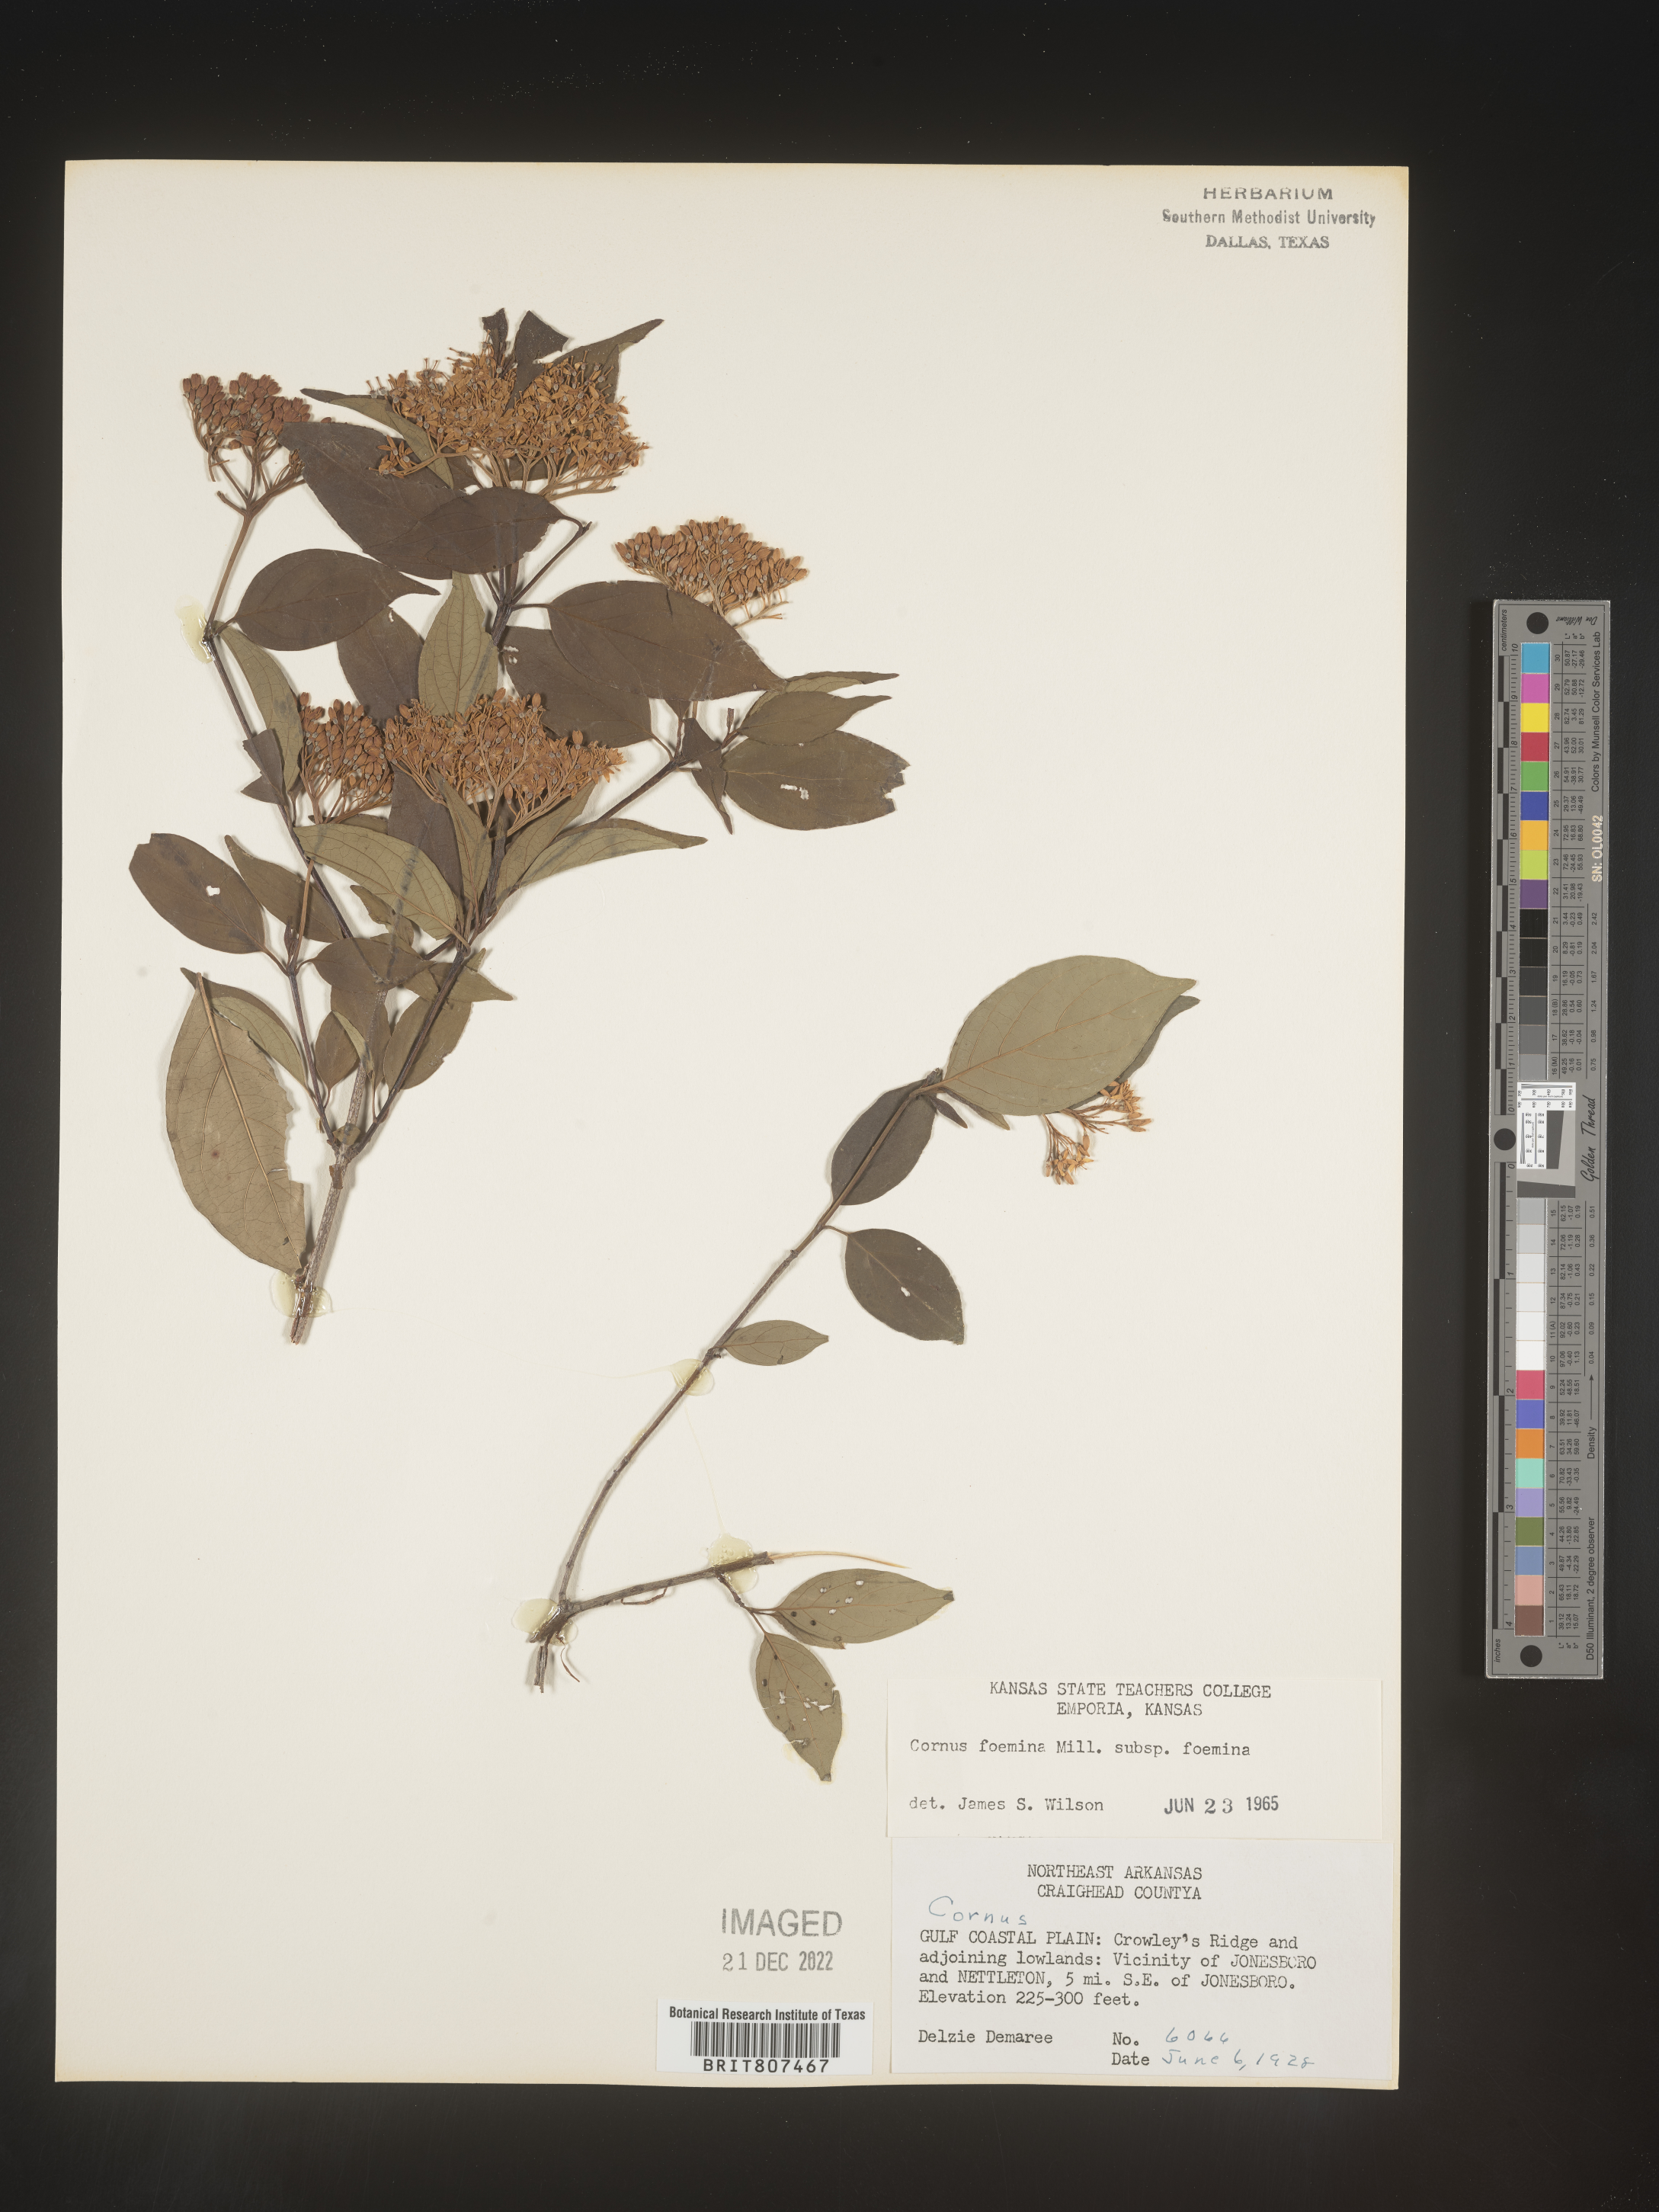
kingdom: Plantae
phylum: Tracheophyta
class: Magnoliopsida
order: Cornales
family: Cornaceae
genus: Cornus
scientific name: Cornus foemina
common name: Swamp dogwood
